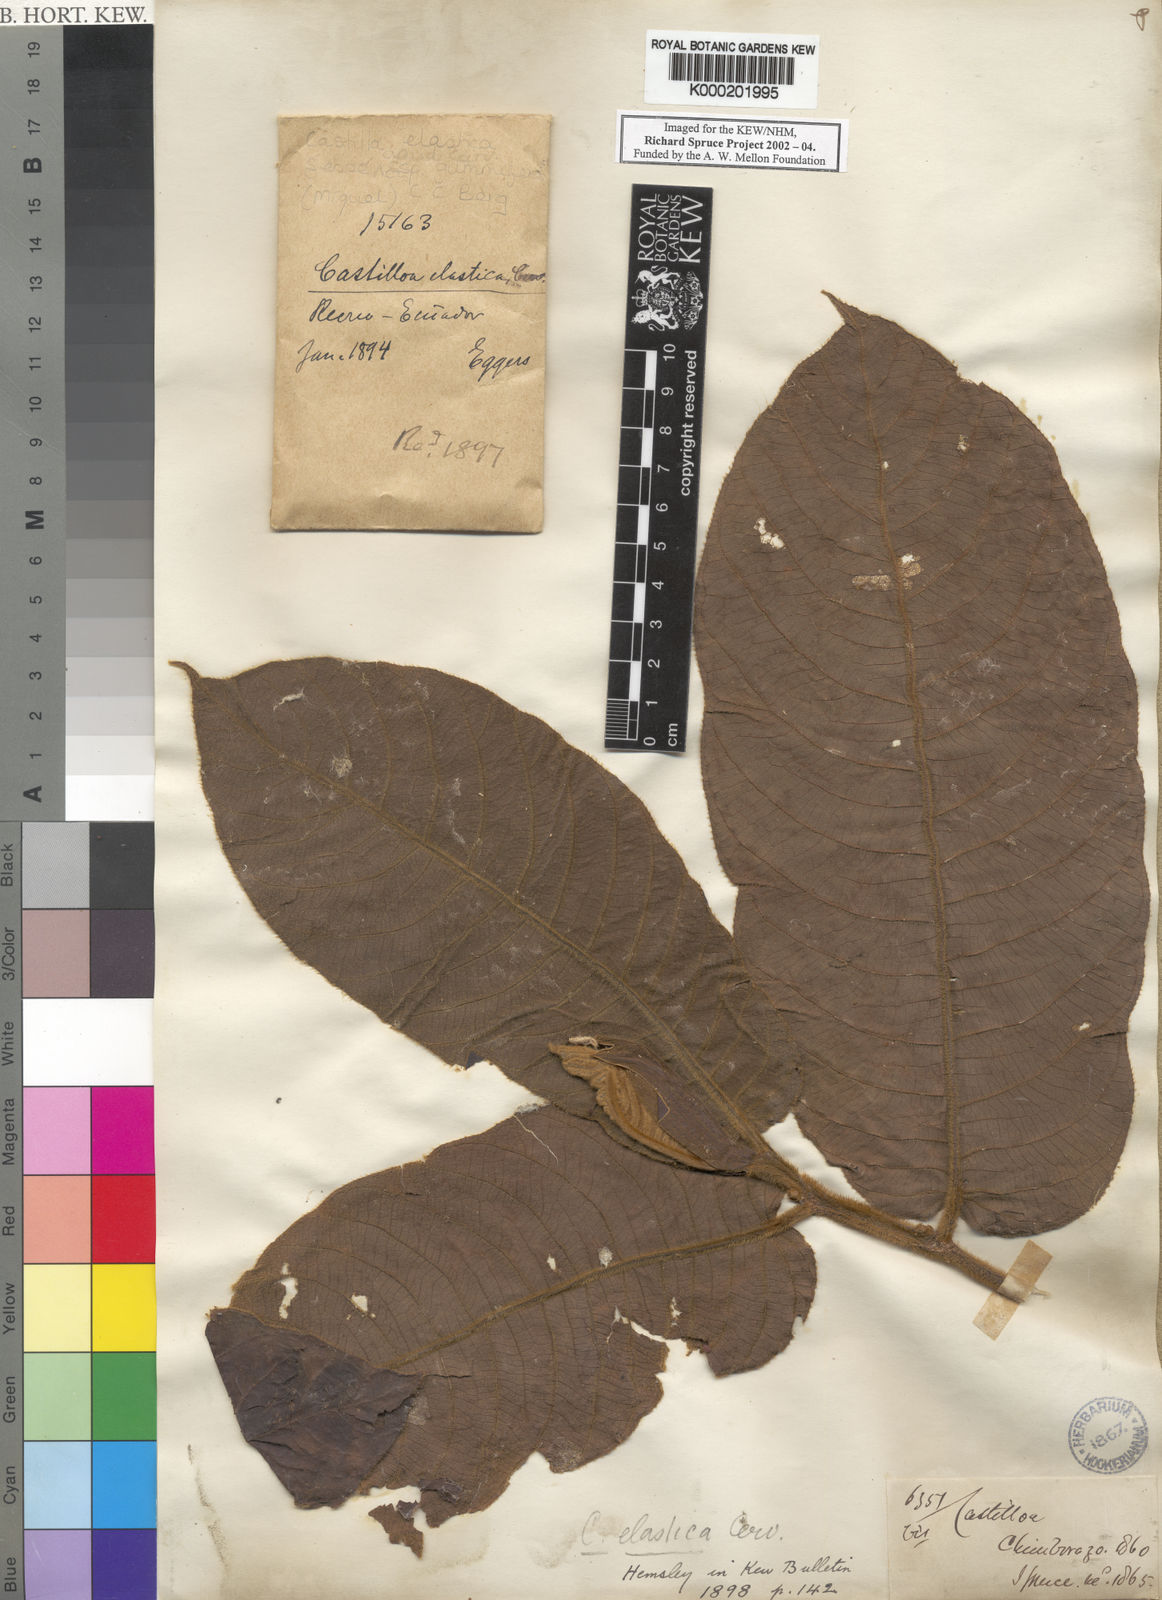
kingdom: Plantae
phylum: Tracheophyta
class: Magnoliopsida
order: Rosales
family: Moraceae
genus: Castilla
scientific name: Castilla elastica
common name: Castilla rubber
